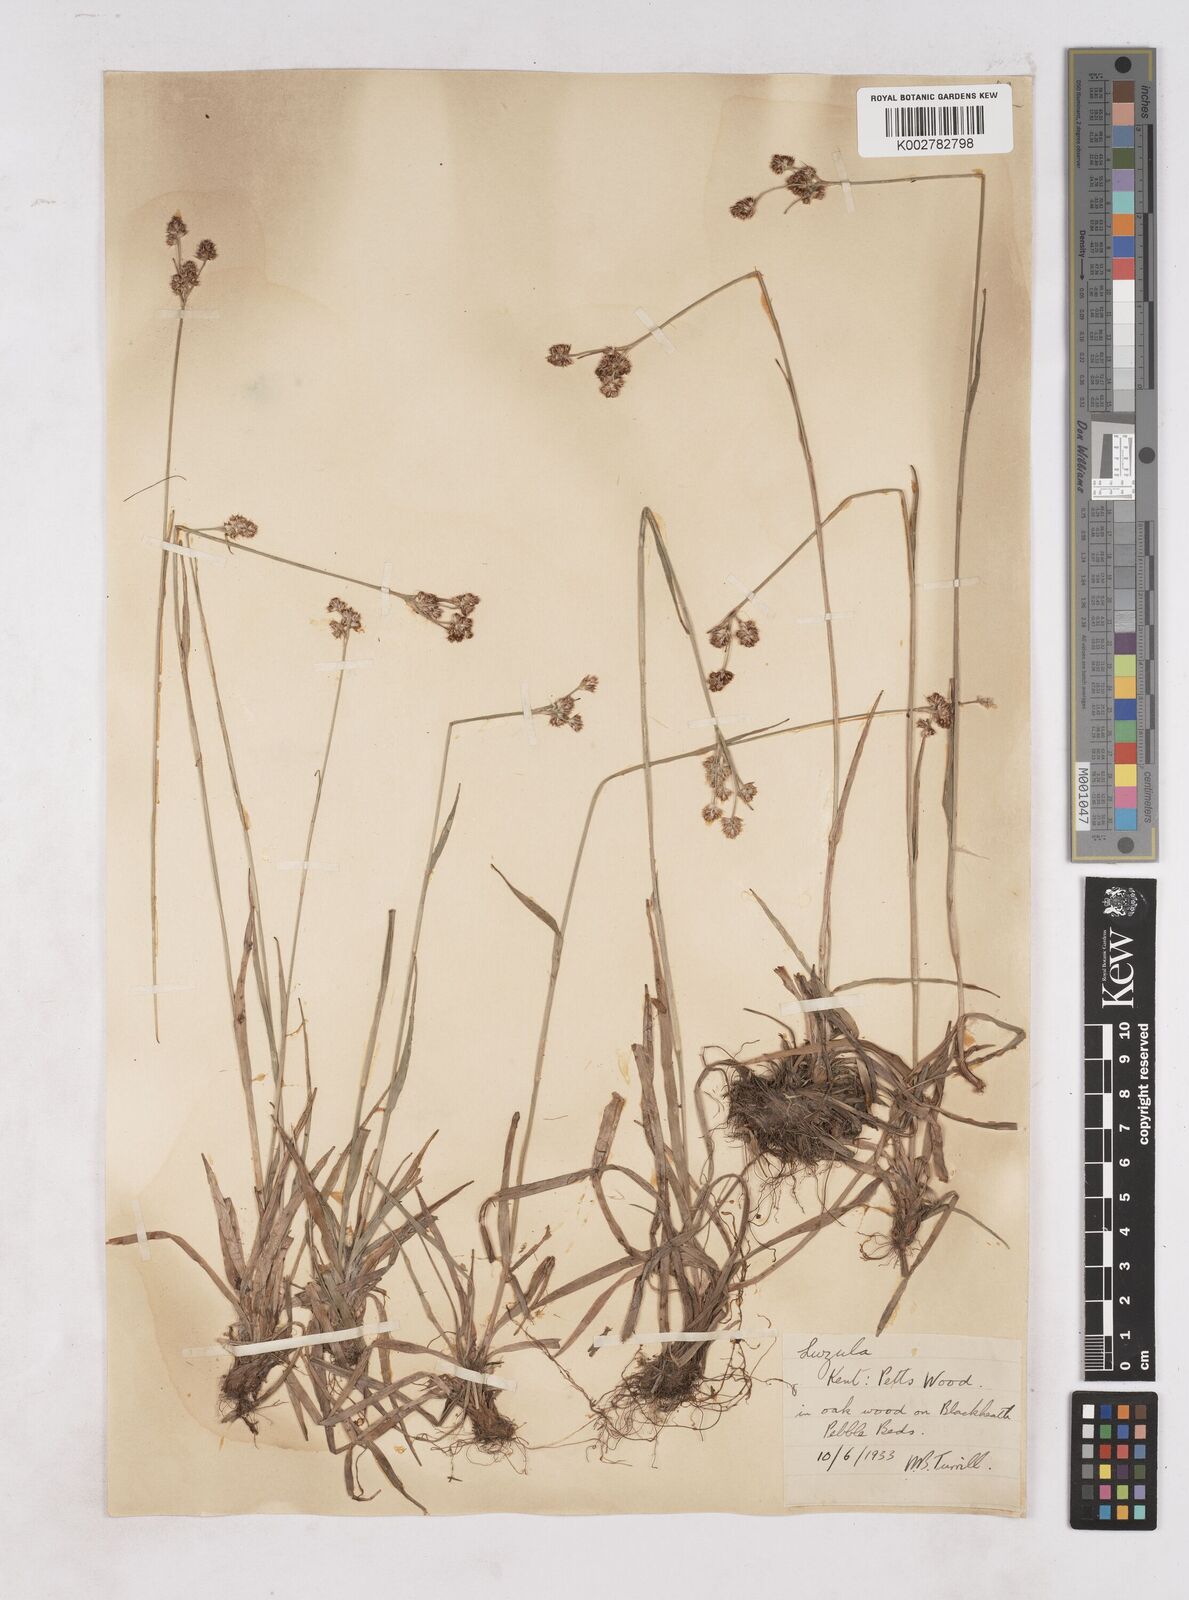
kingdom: Plantae
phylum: Tracheophyta
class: Liliopsida
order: Poales
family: Juncaceae
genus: Luzula
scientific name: Luzula campestris
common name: Field wood-rush
